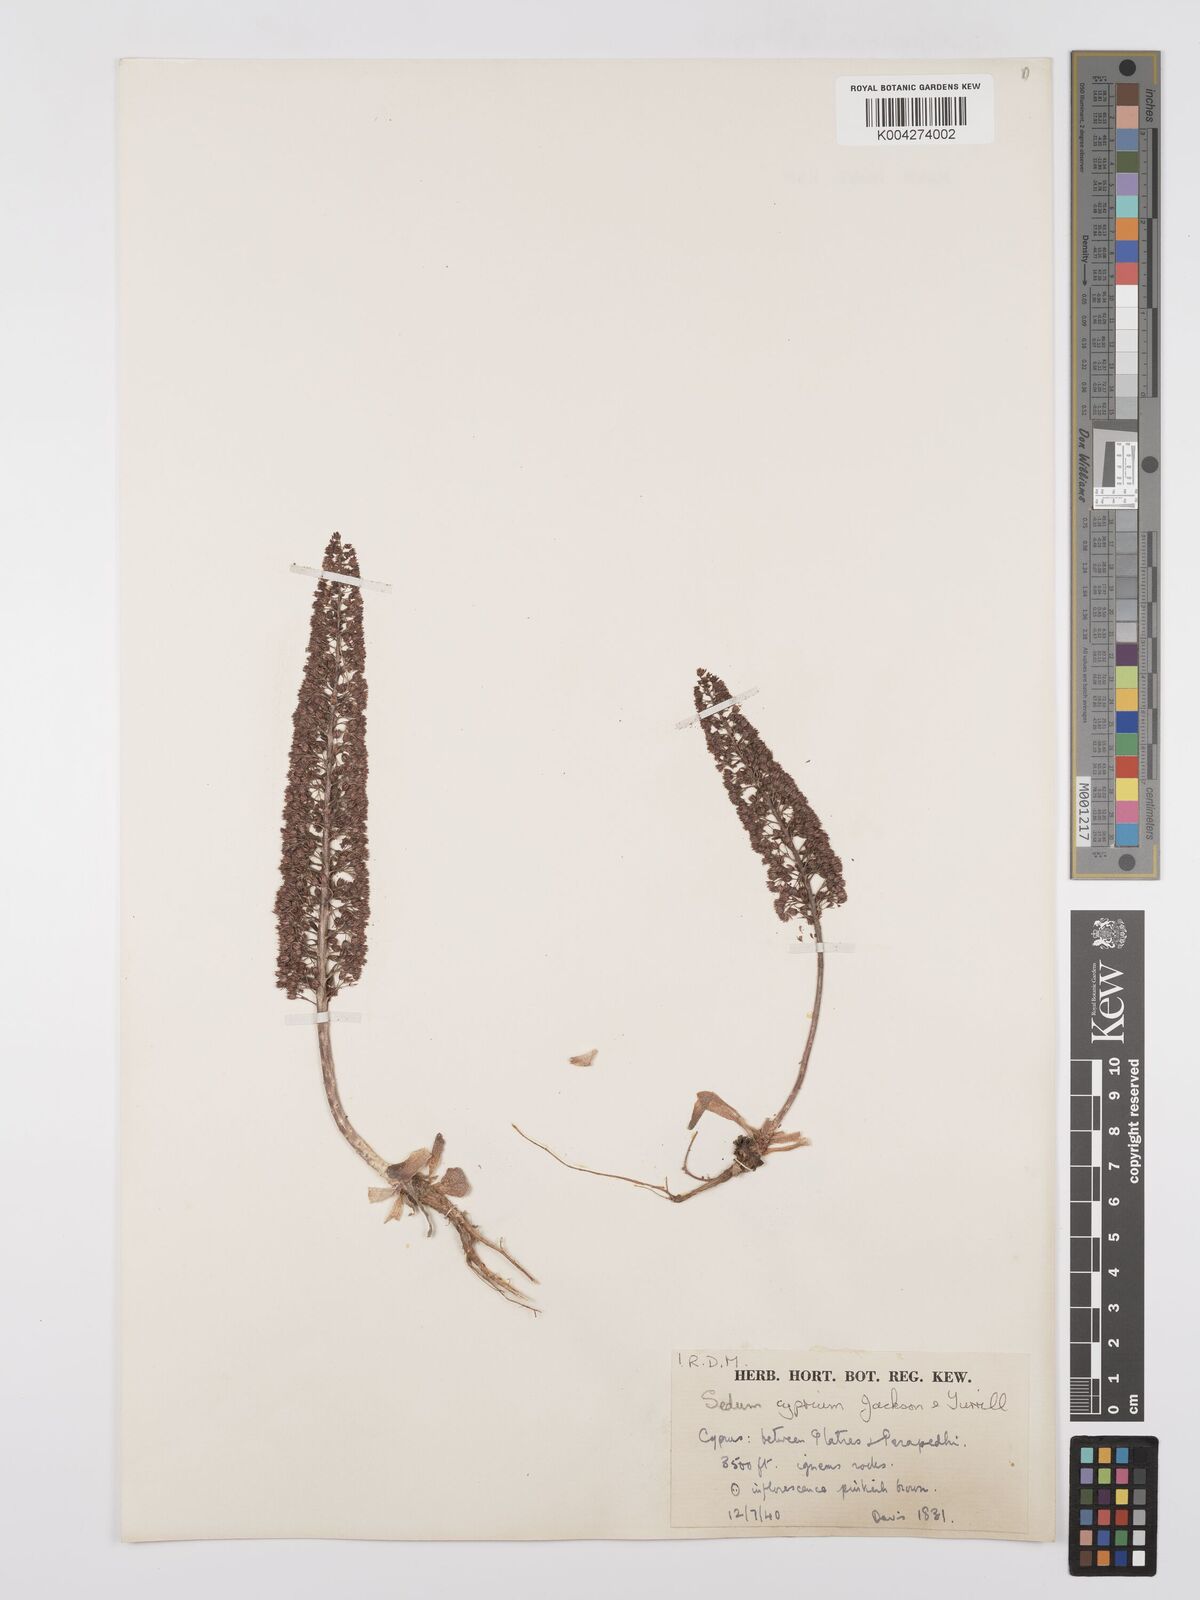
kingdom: Plantae
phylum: Tracheophyta
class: Magnoliopsida
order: Saxifragales
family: Crassulaceae
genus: Sedum
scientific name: Sedum cyprium
